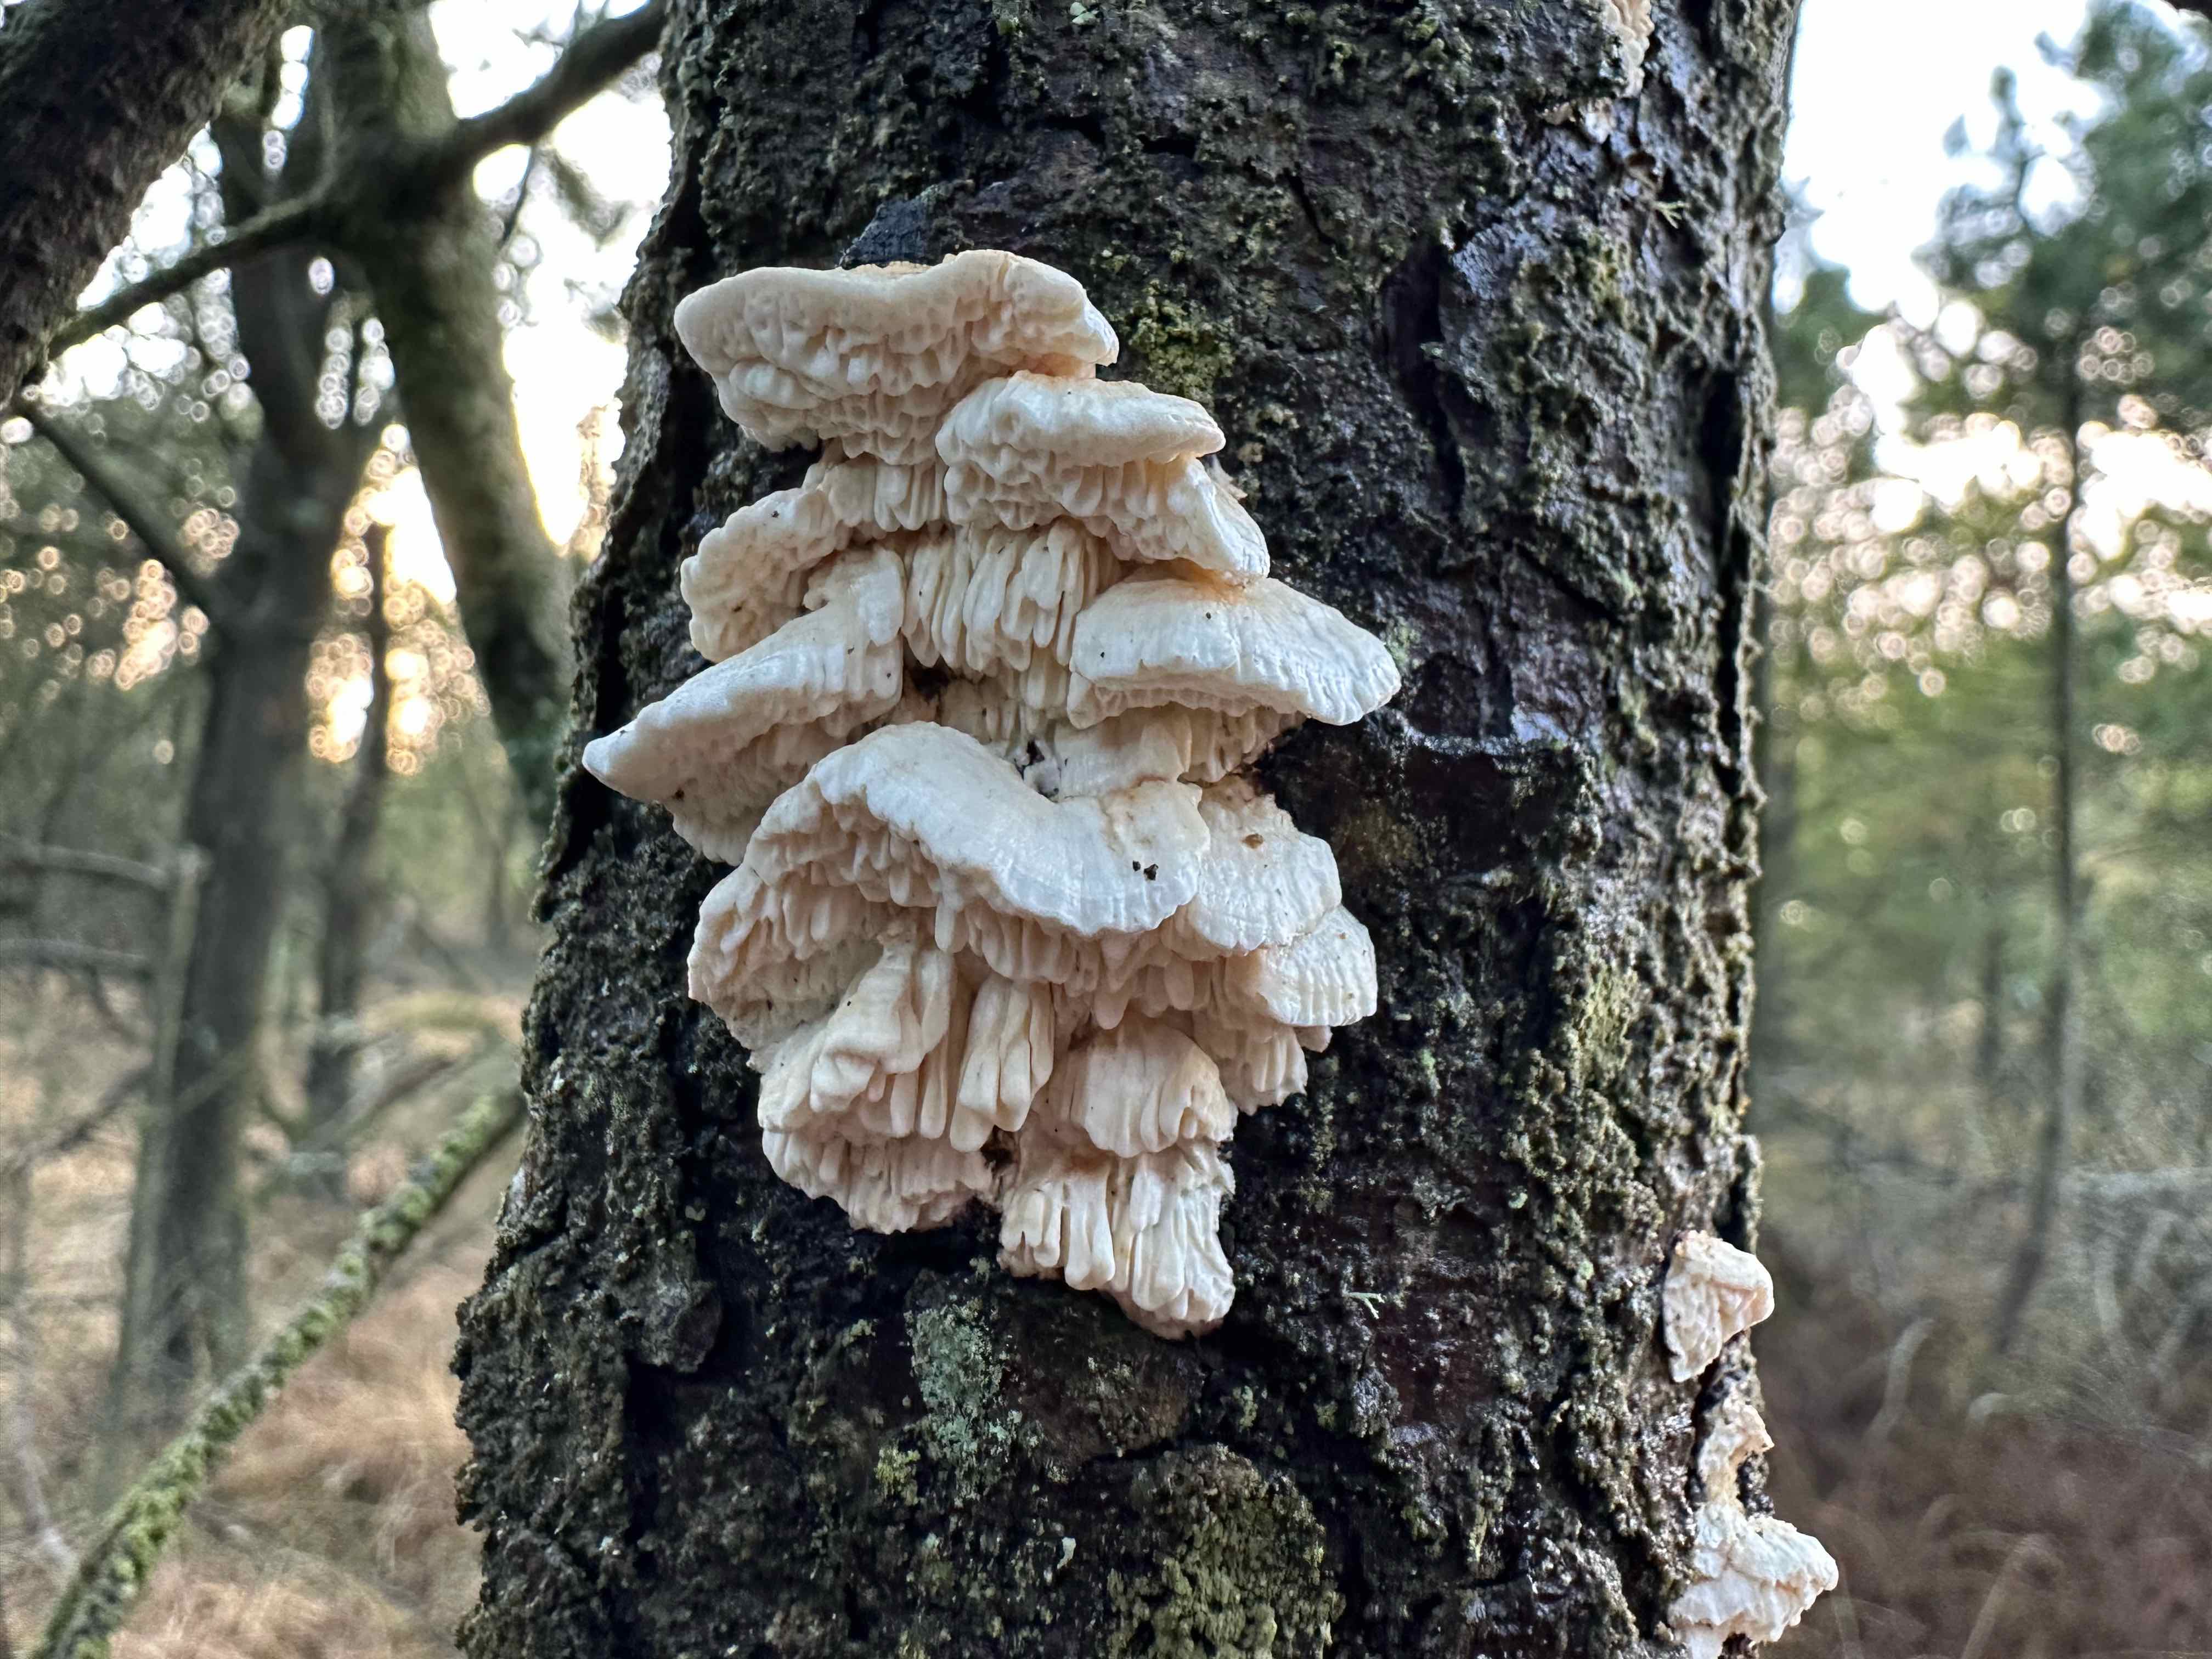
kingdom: Fungi
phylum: Basidiomycota
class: Agaricomycetes
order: Polyporales
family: Fomitopsidaceae
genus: Fomitopsis
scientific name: Fomitopsis
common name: fyrre-skiveporesvamp
